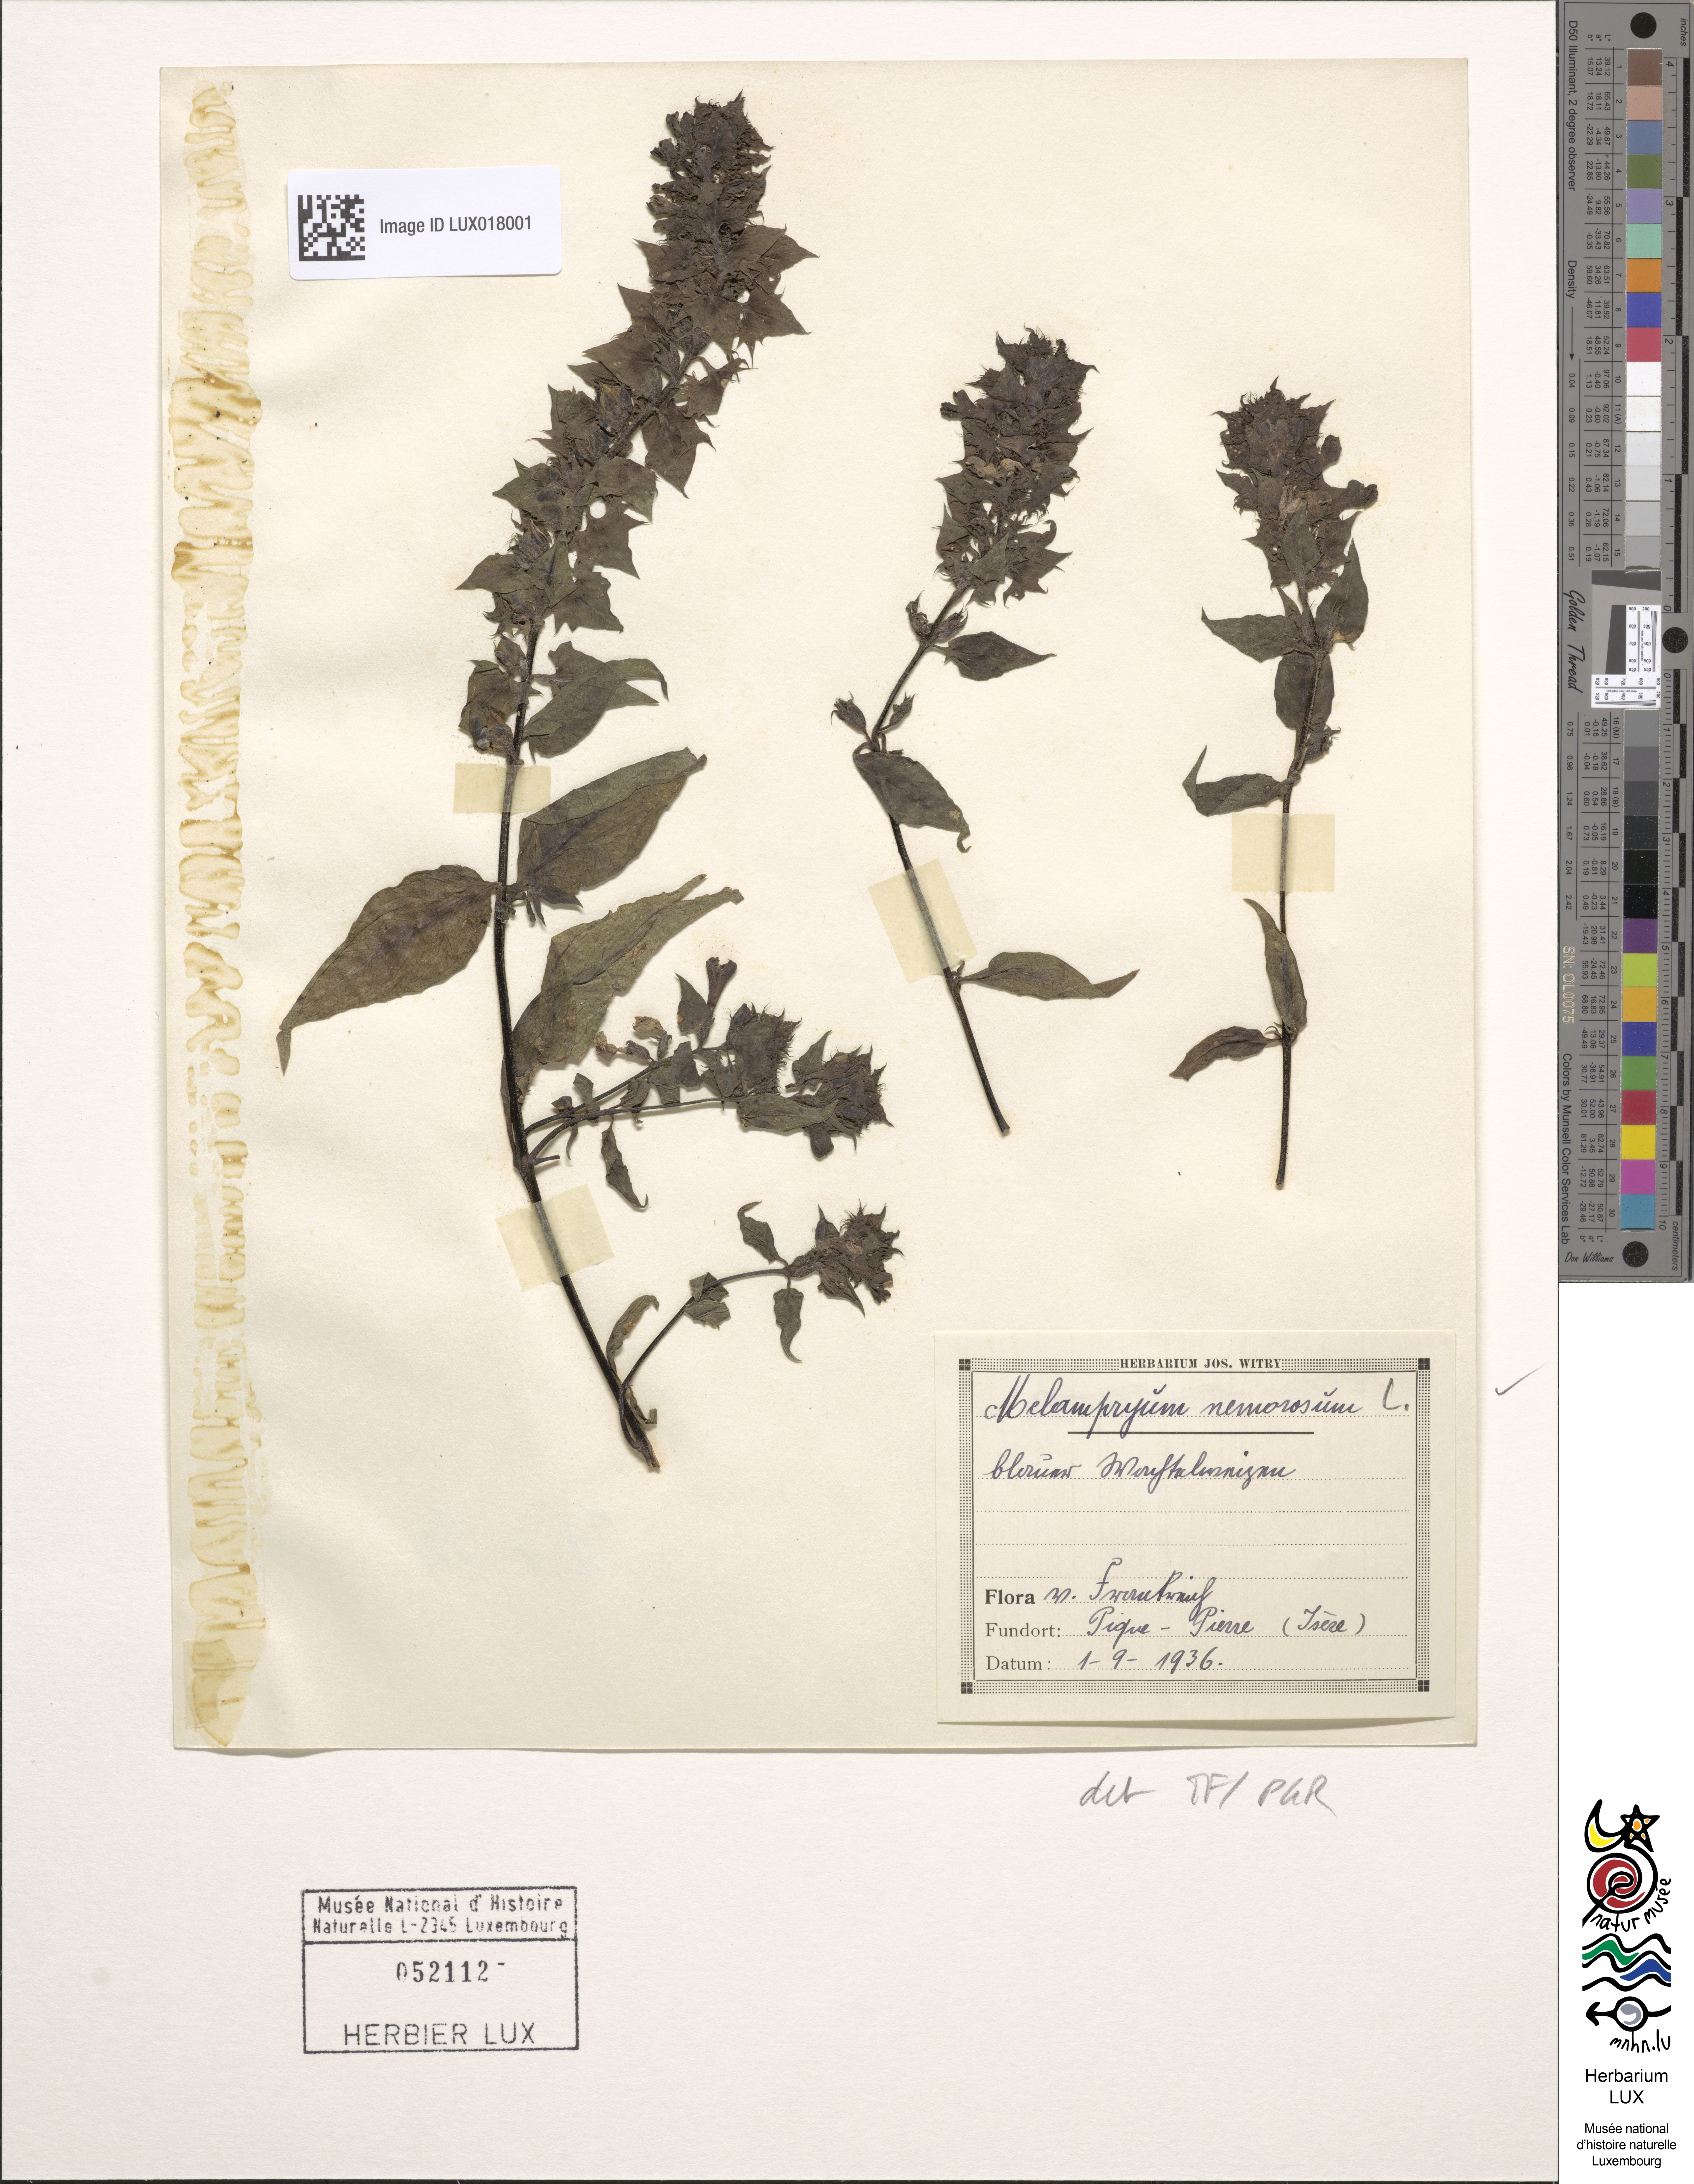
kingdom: Plantae
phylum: Tracheophyta
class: Magnoliopsida
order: Lamiales
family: Orobanchaceae
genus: Melampyrum
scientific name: Melampyrum nemorosum
